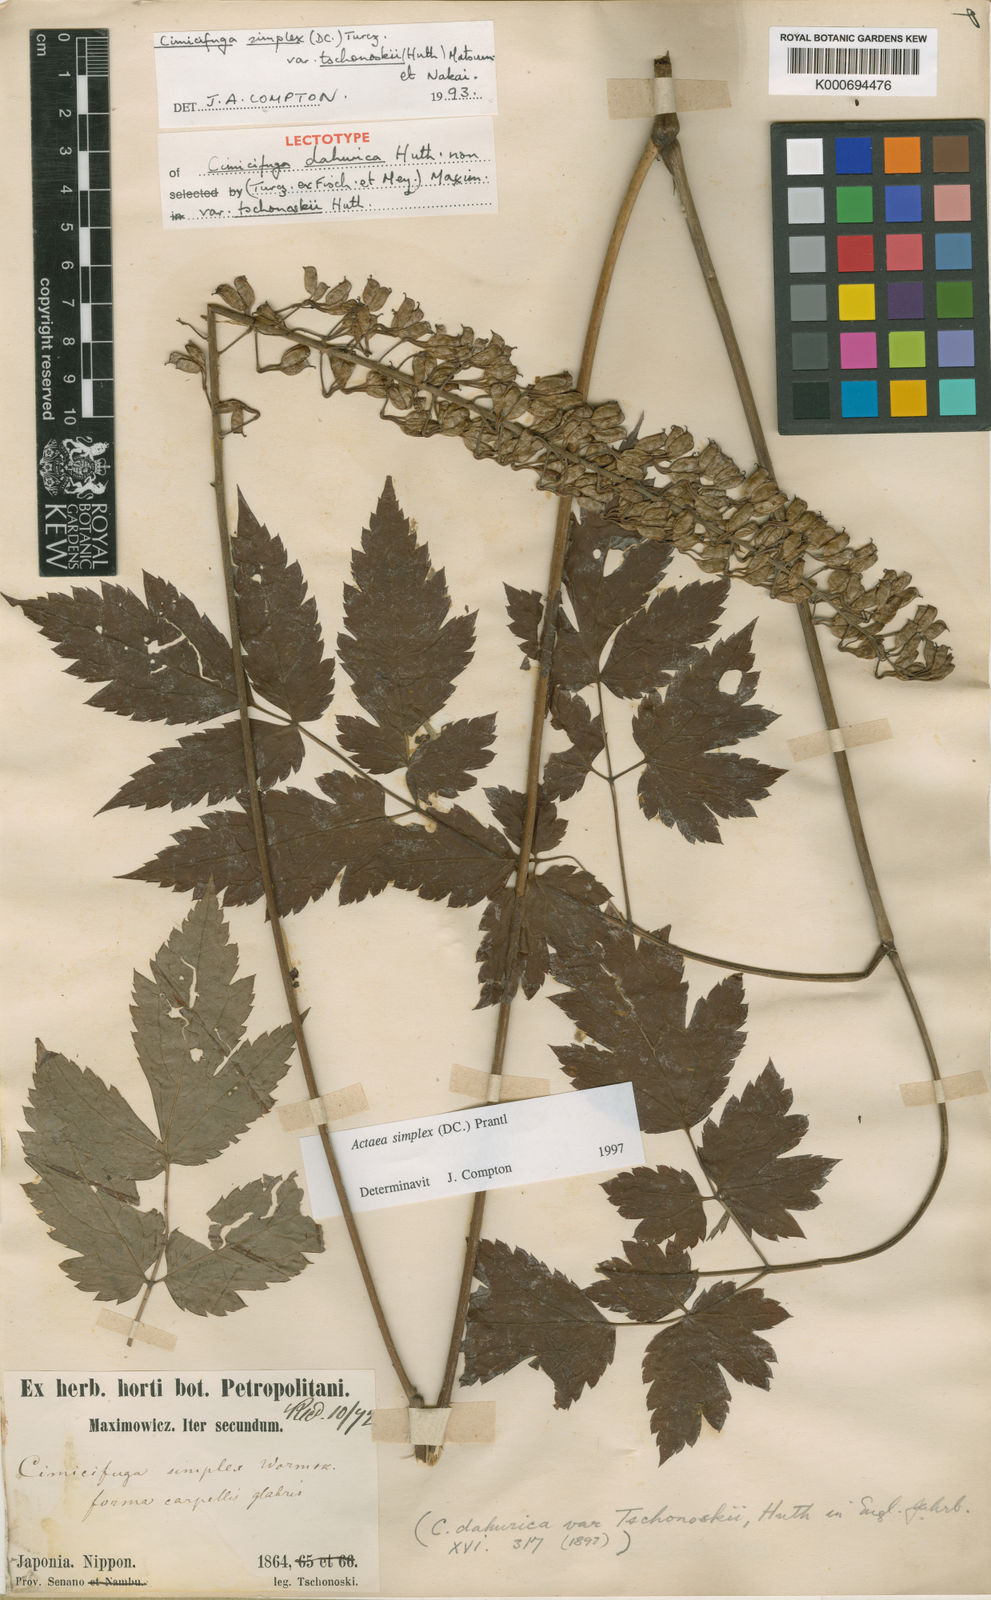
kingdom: Plantae
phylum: Tracheophyta
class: Magnoliopsida
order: Ranunculales
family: Ranunculaceae
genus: Actaea
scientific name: Actaea simplex
